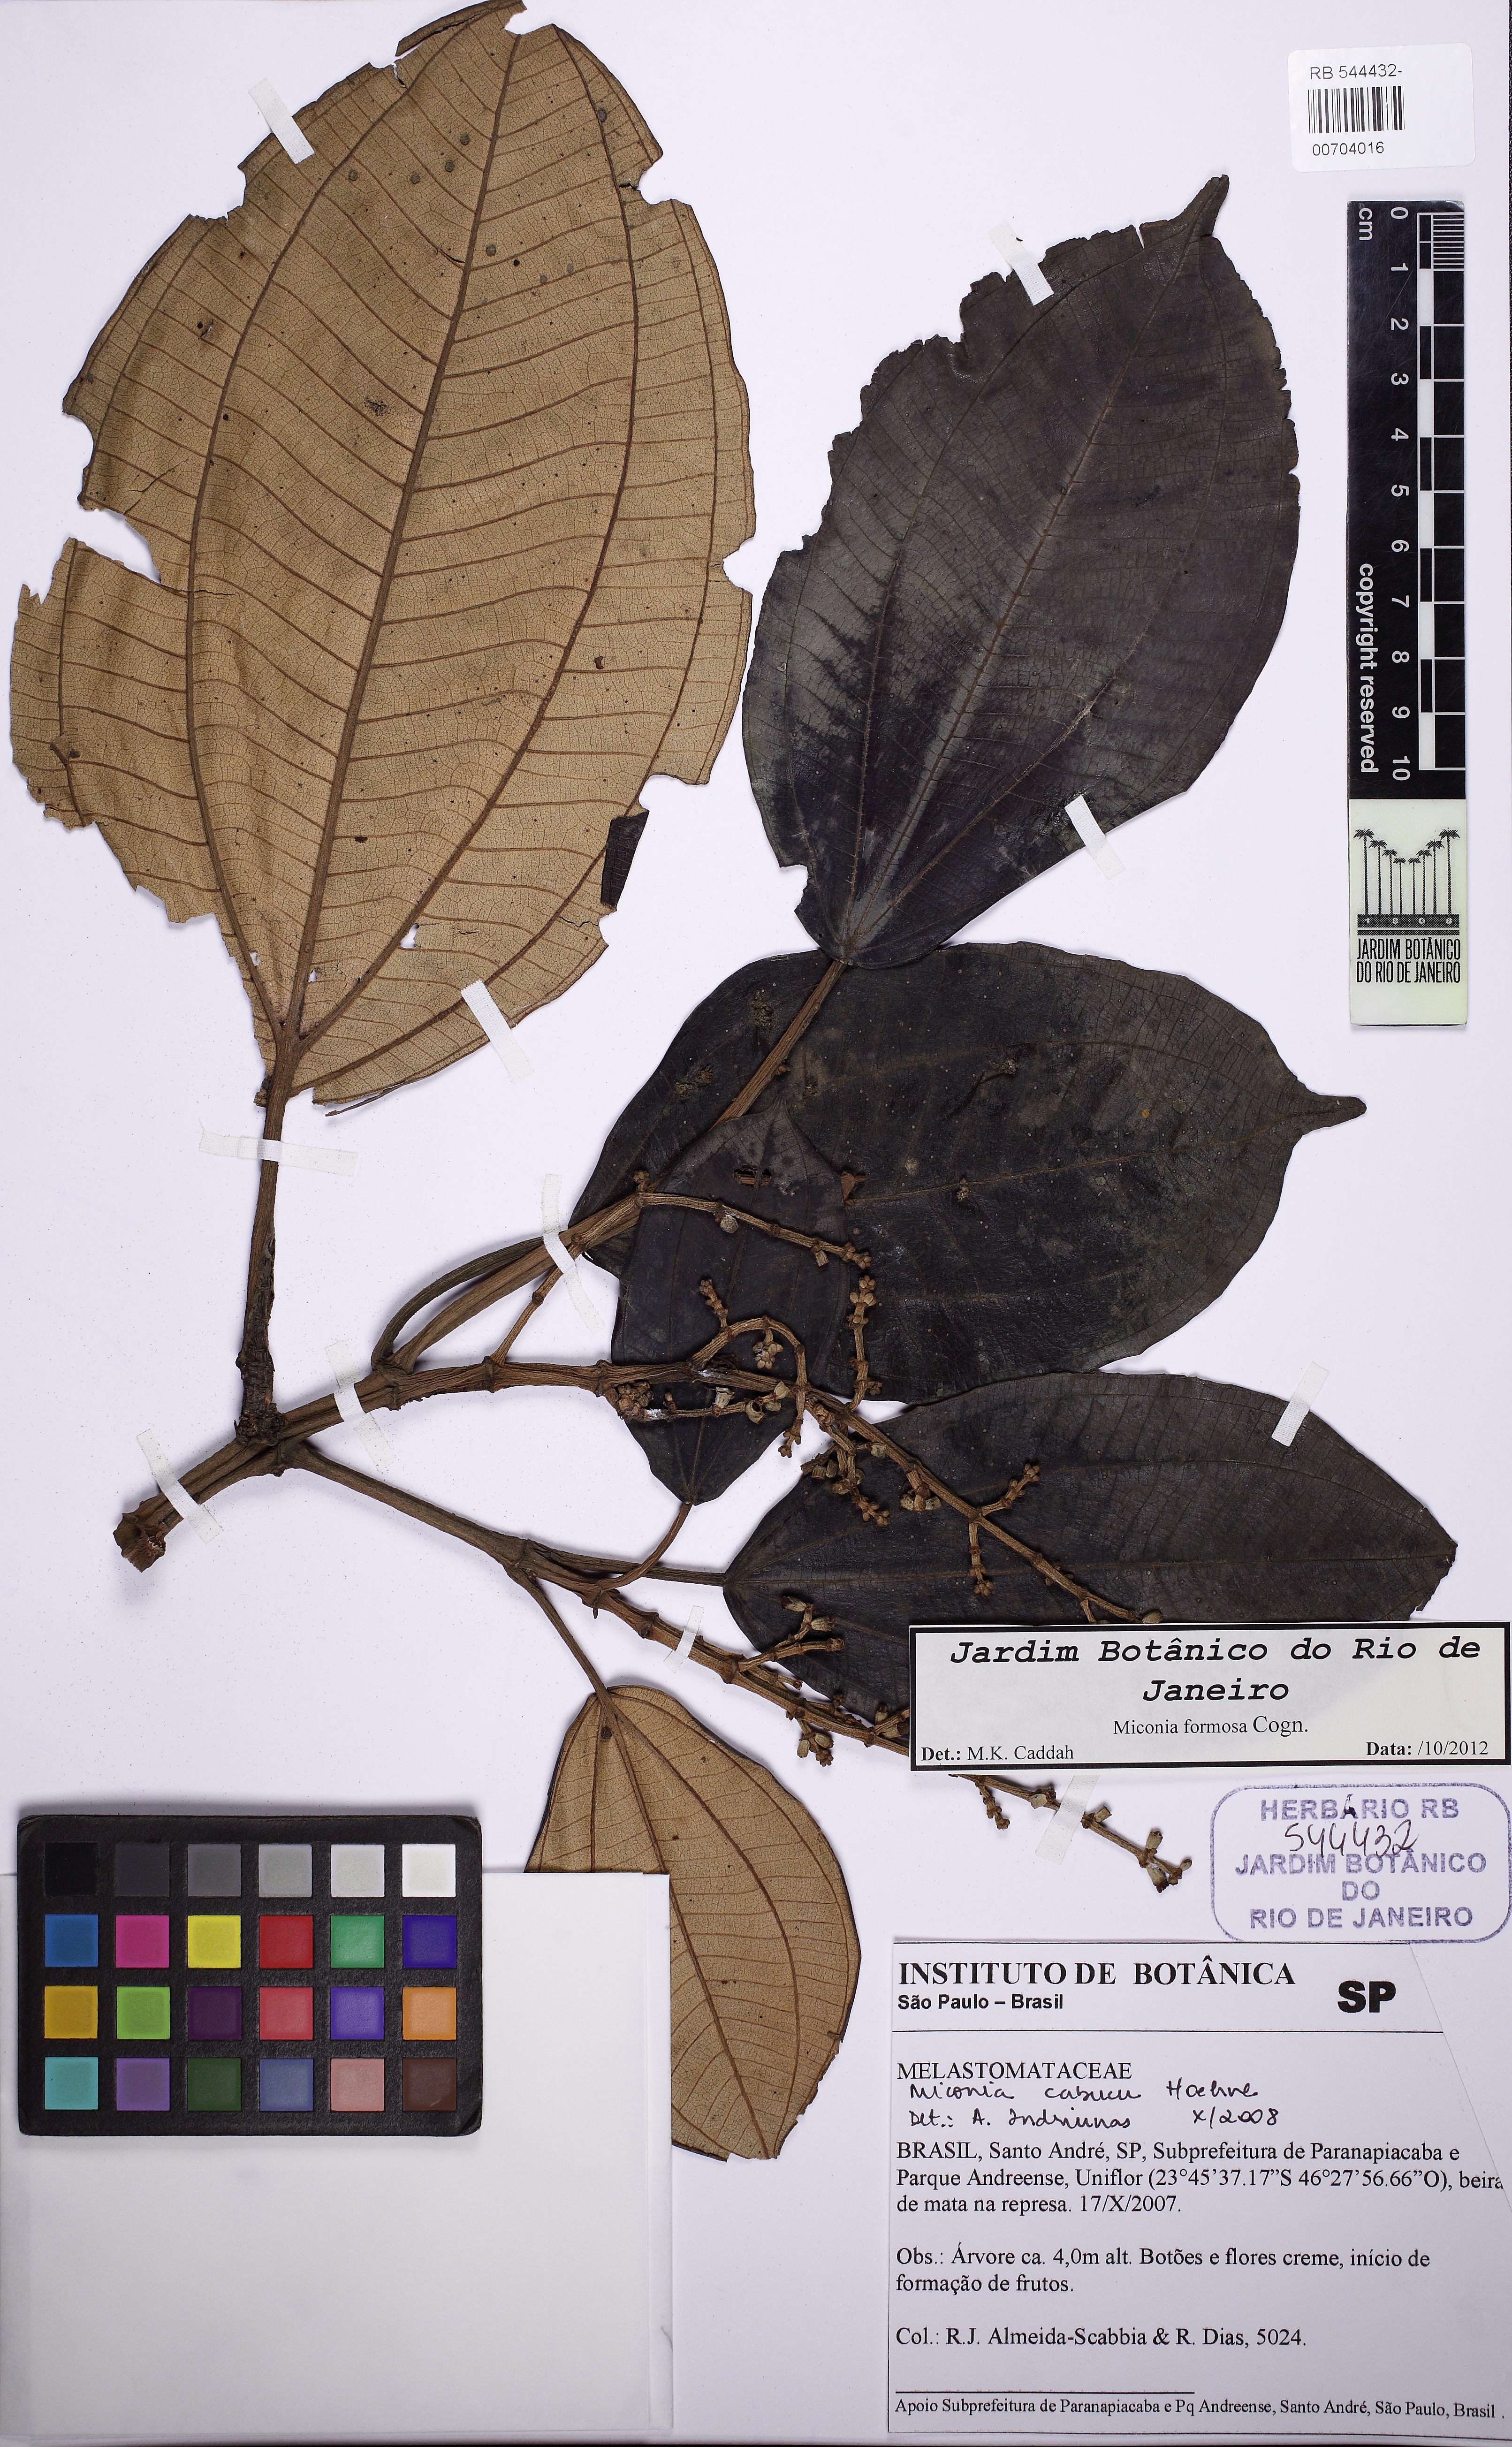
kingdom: Plantae
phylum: Tracheophyta
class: Magnoliopsida
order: Myrtales
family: Melastomataceae
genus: Miconia
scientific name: Miconia formosa
